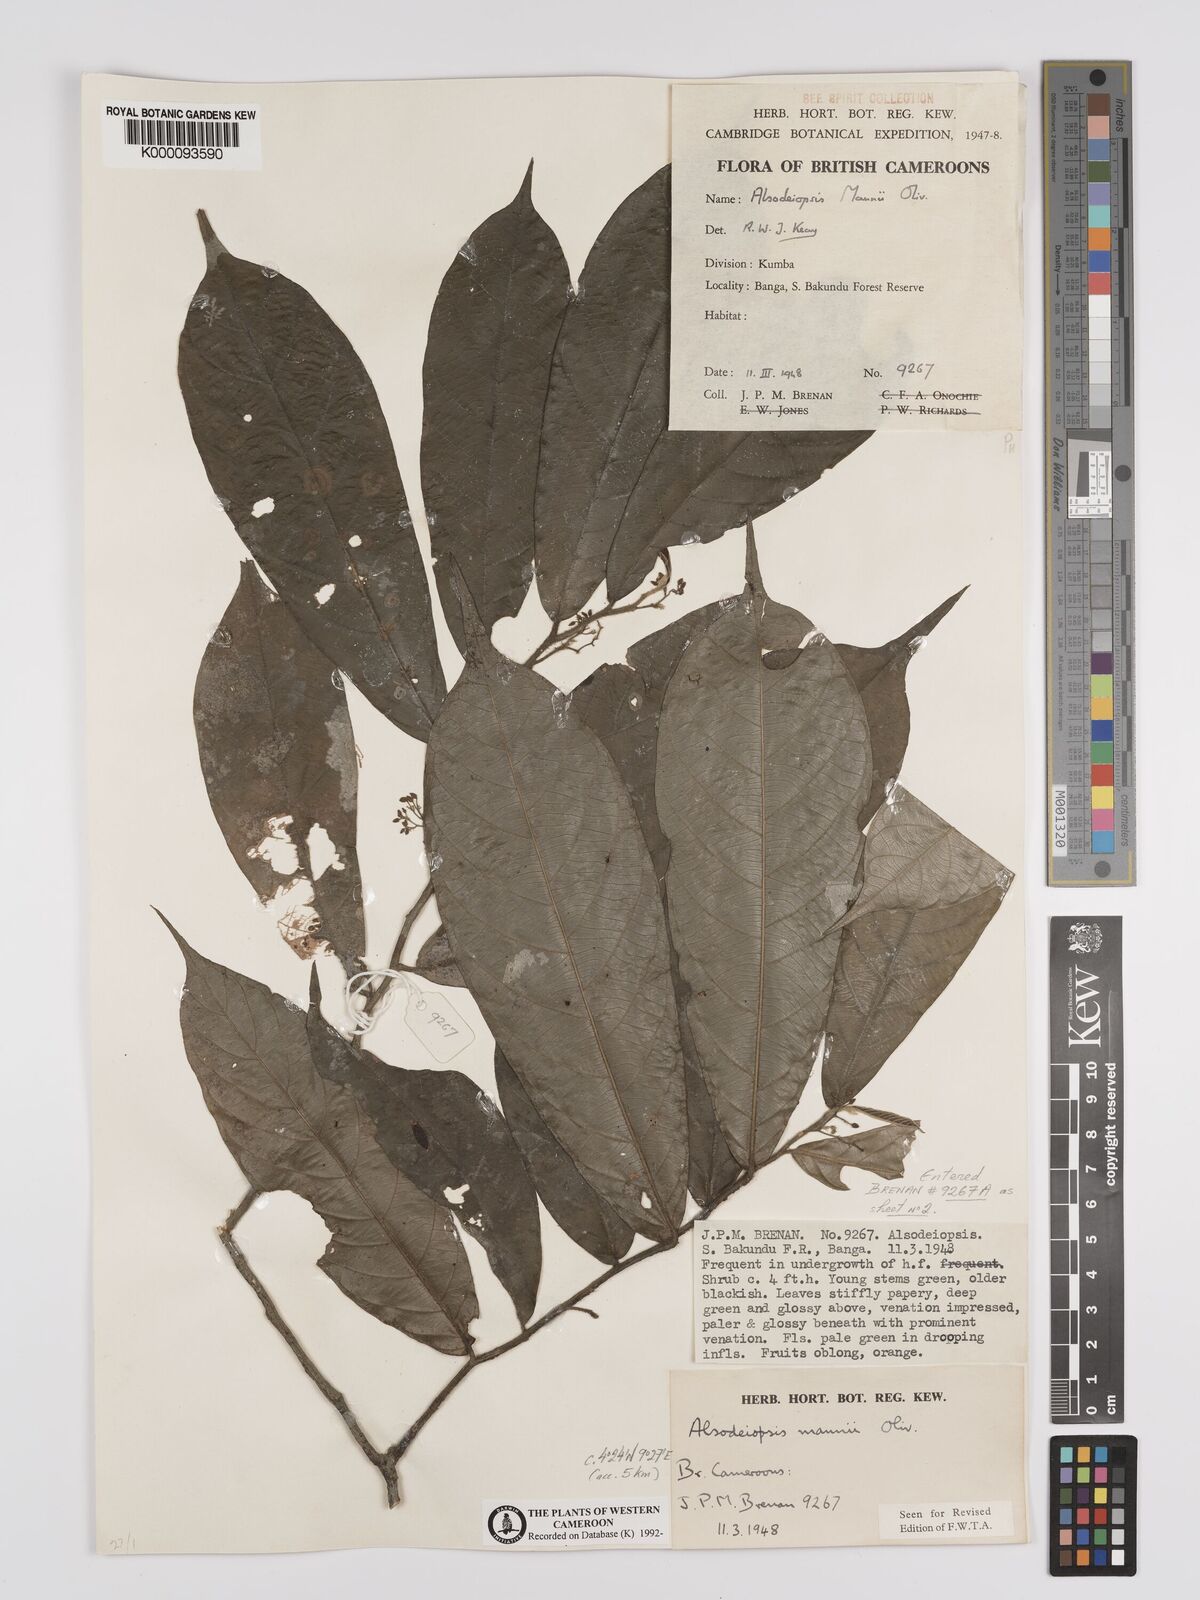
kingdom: Plantae
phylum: Tracheophyta
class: Magnoliopsida
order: Icacinales
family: Icacinaceae
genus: Alsodeiopsis
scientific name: Alsodeiopsis mannii
